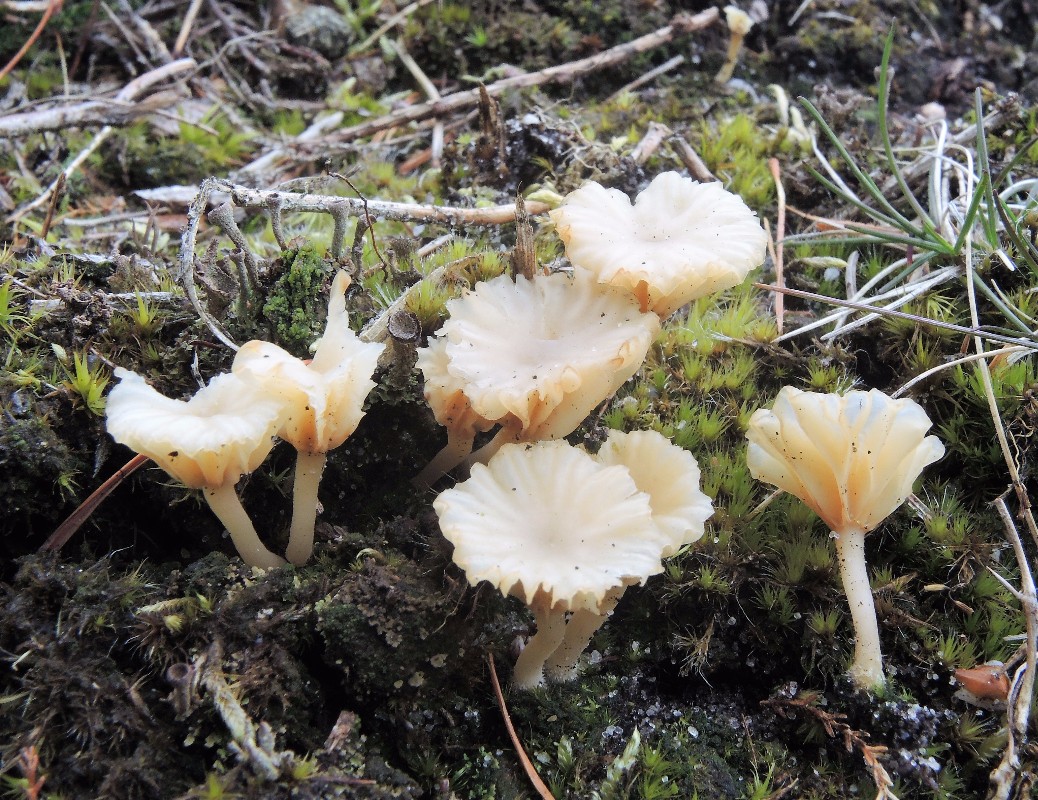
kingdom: Fungi
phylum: Basidiomycota
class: Agaricomycetes
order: Agaricales
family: Hygrophoraceae
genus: Lichenomphalia
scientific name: Lichenomphalia umbellifera
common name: tørve-lavhat
